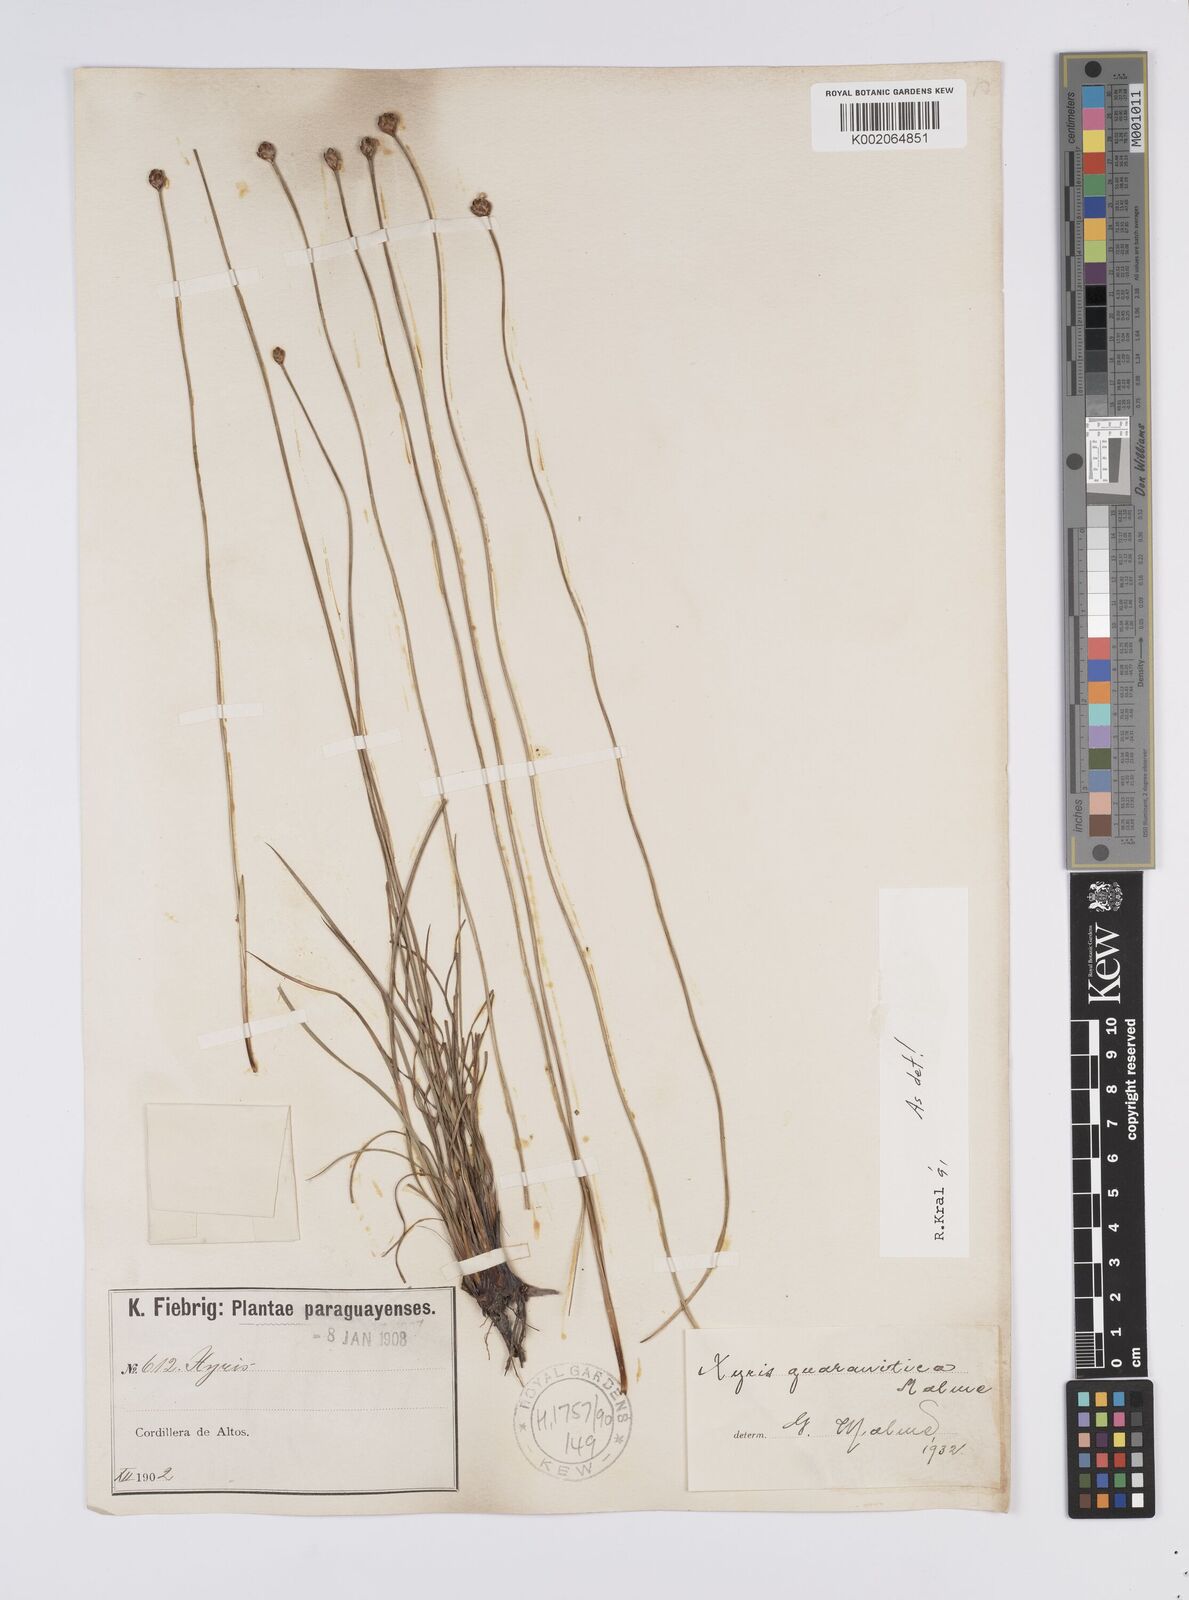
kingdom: Plantae
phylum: Tracheophyta
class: Liliopsida
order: Poales
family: Xyridaceae
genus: Xyris
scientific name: Xyris guaranitica
